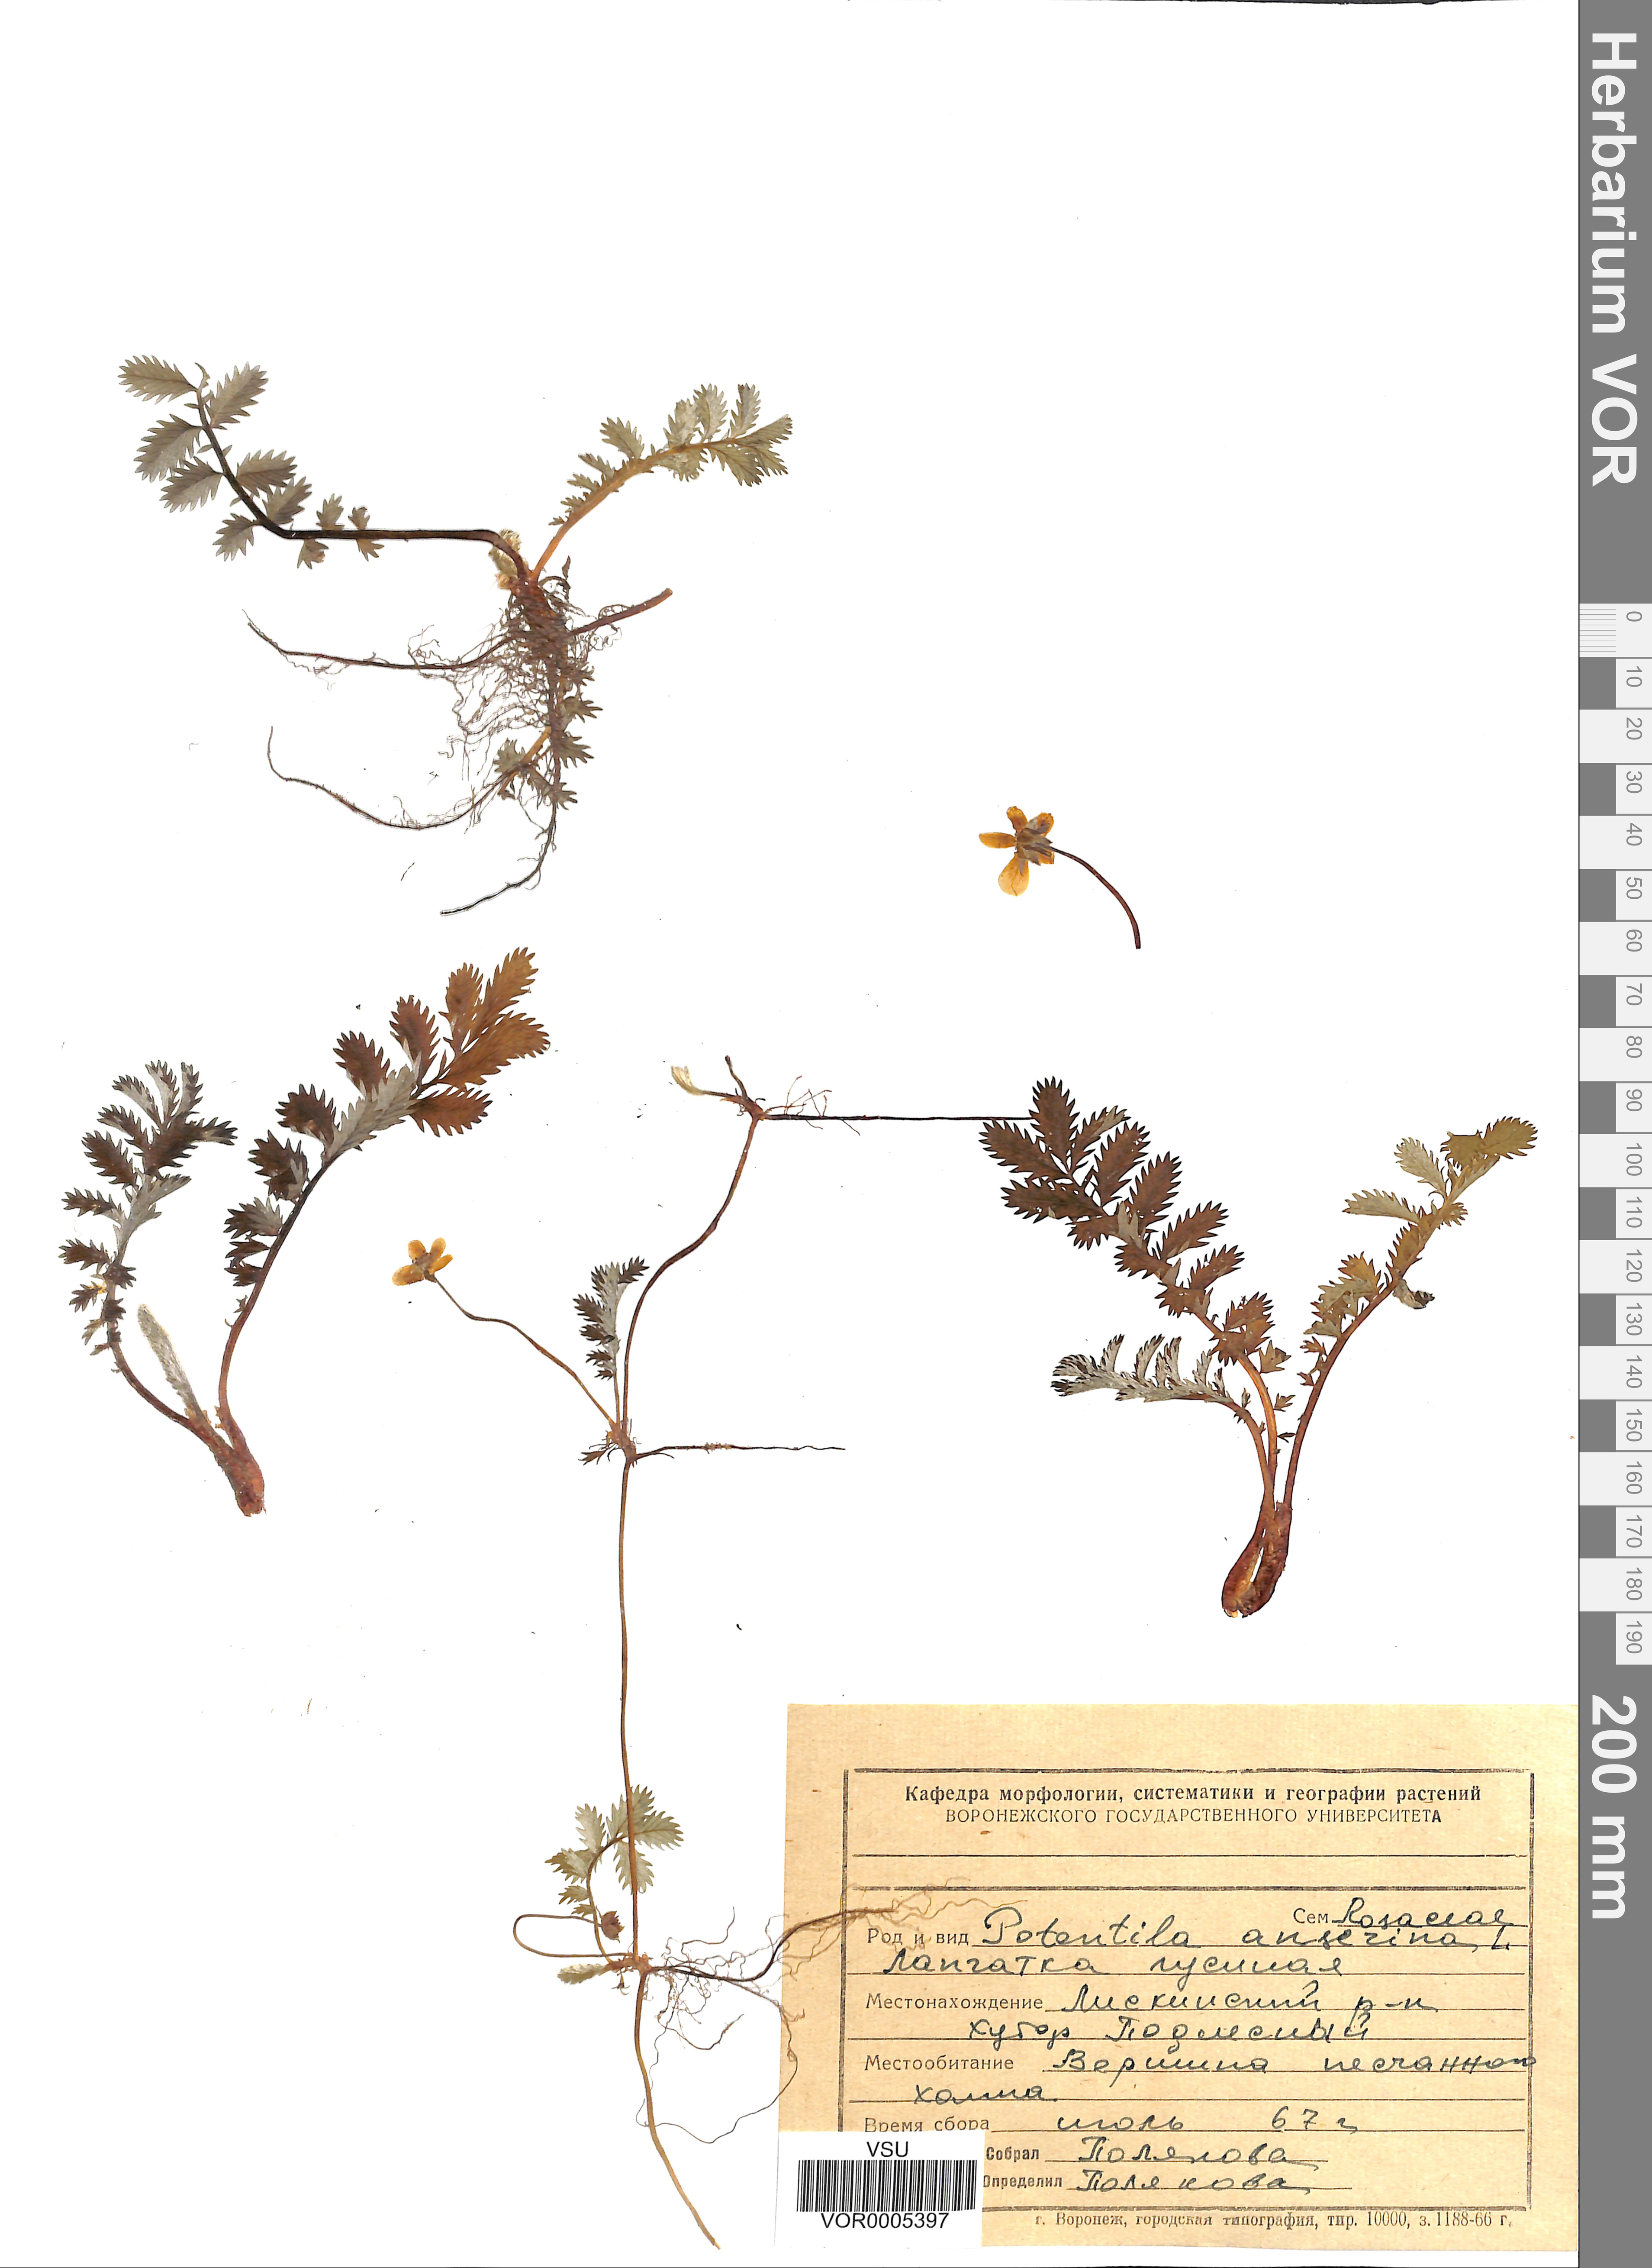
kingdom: Plantae
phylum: Tracheophyta
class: Magnoliopsida
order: Rosales
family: Rosaceae
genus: Argentina
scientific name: Argentina anserina
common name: Common silverweed
